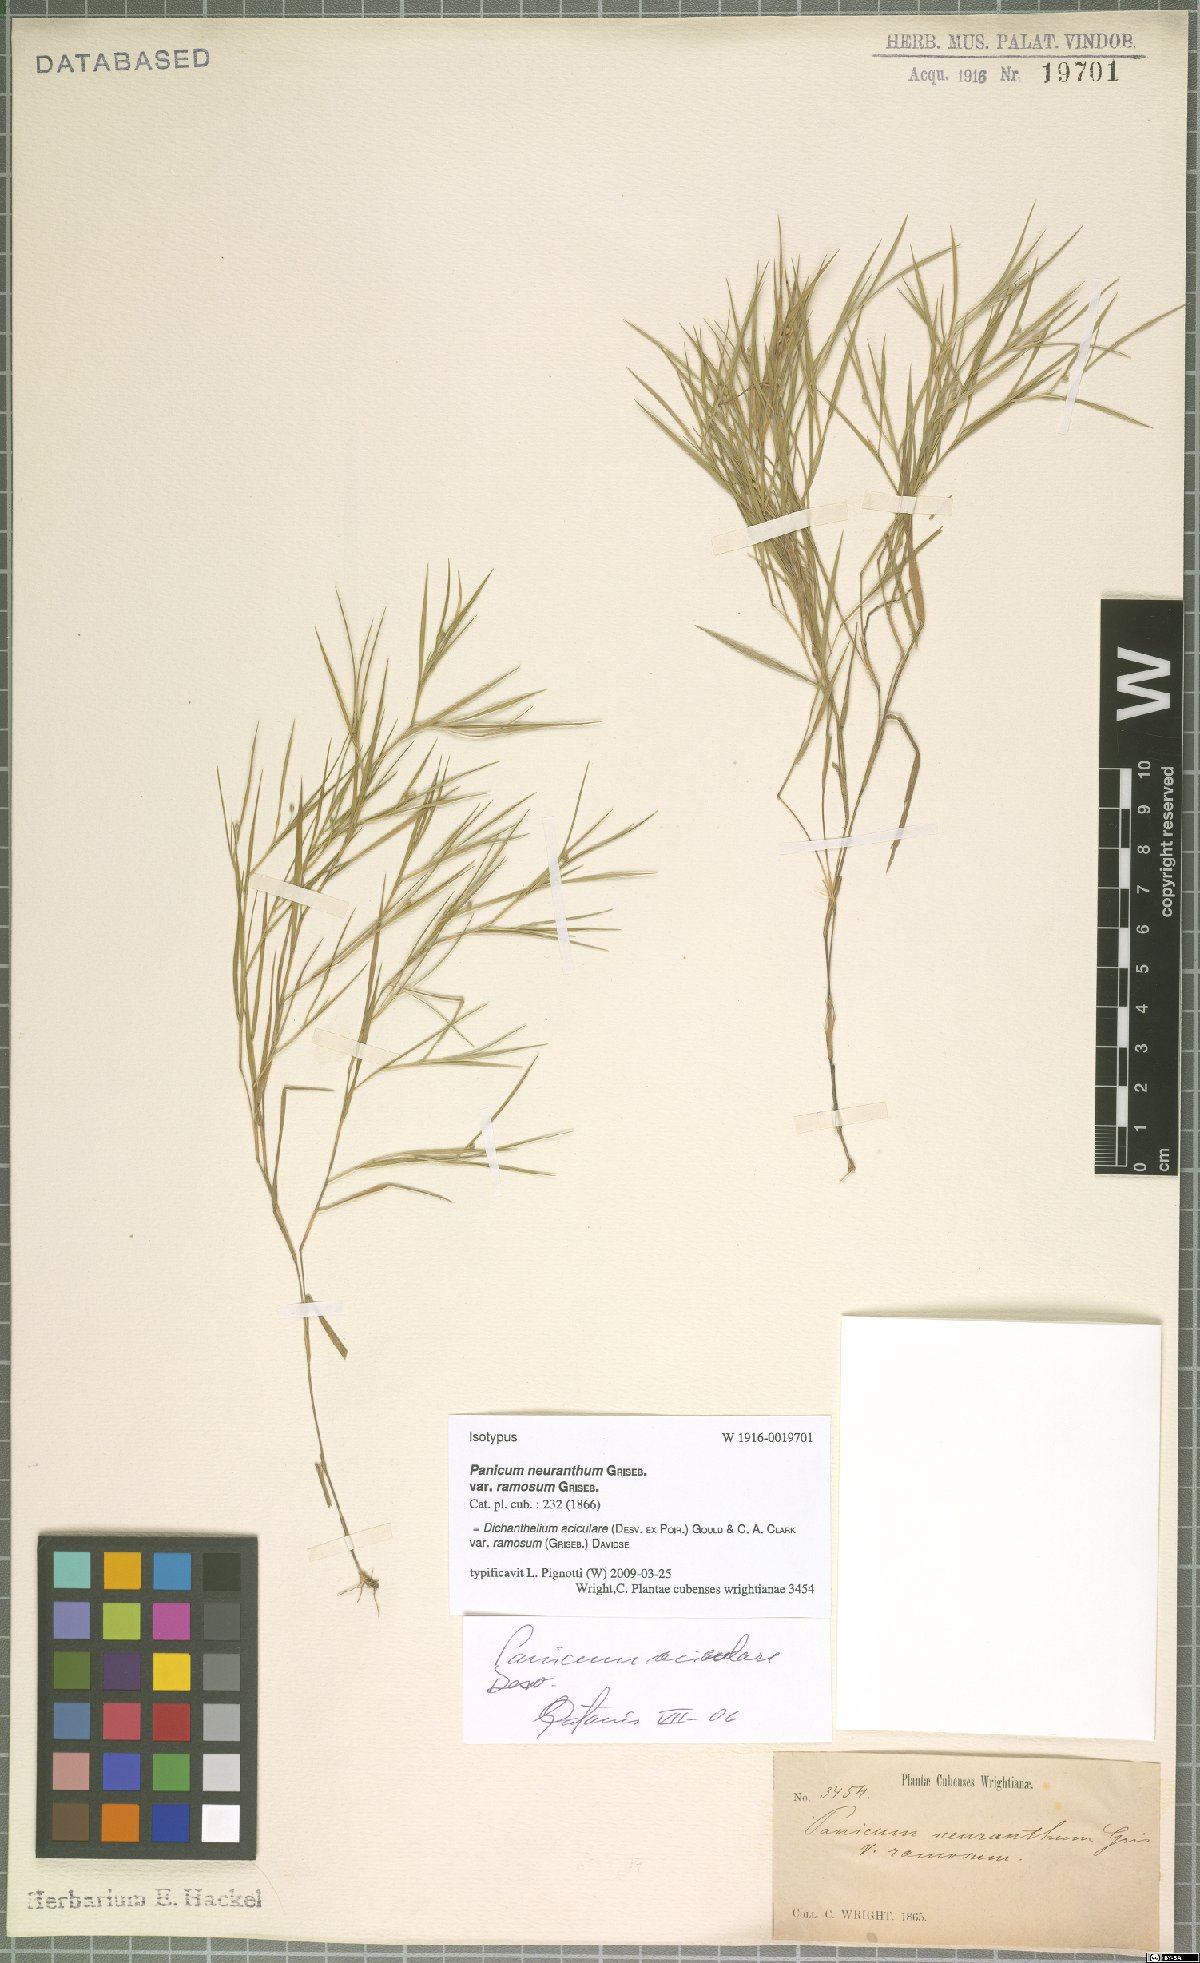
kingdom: Plantae
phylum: Tracheophyta
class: Liliopsida
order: Poales
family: Poaceae
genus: Dichanthelium
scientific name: Dichanthelium aciculare
